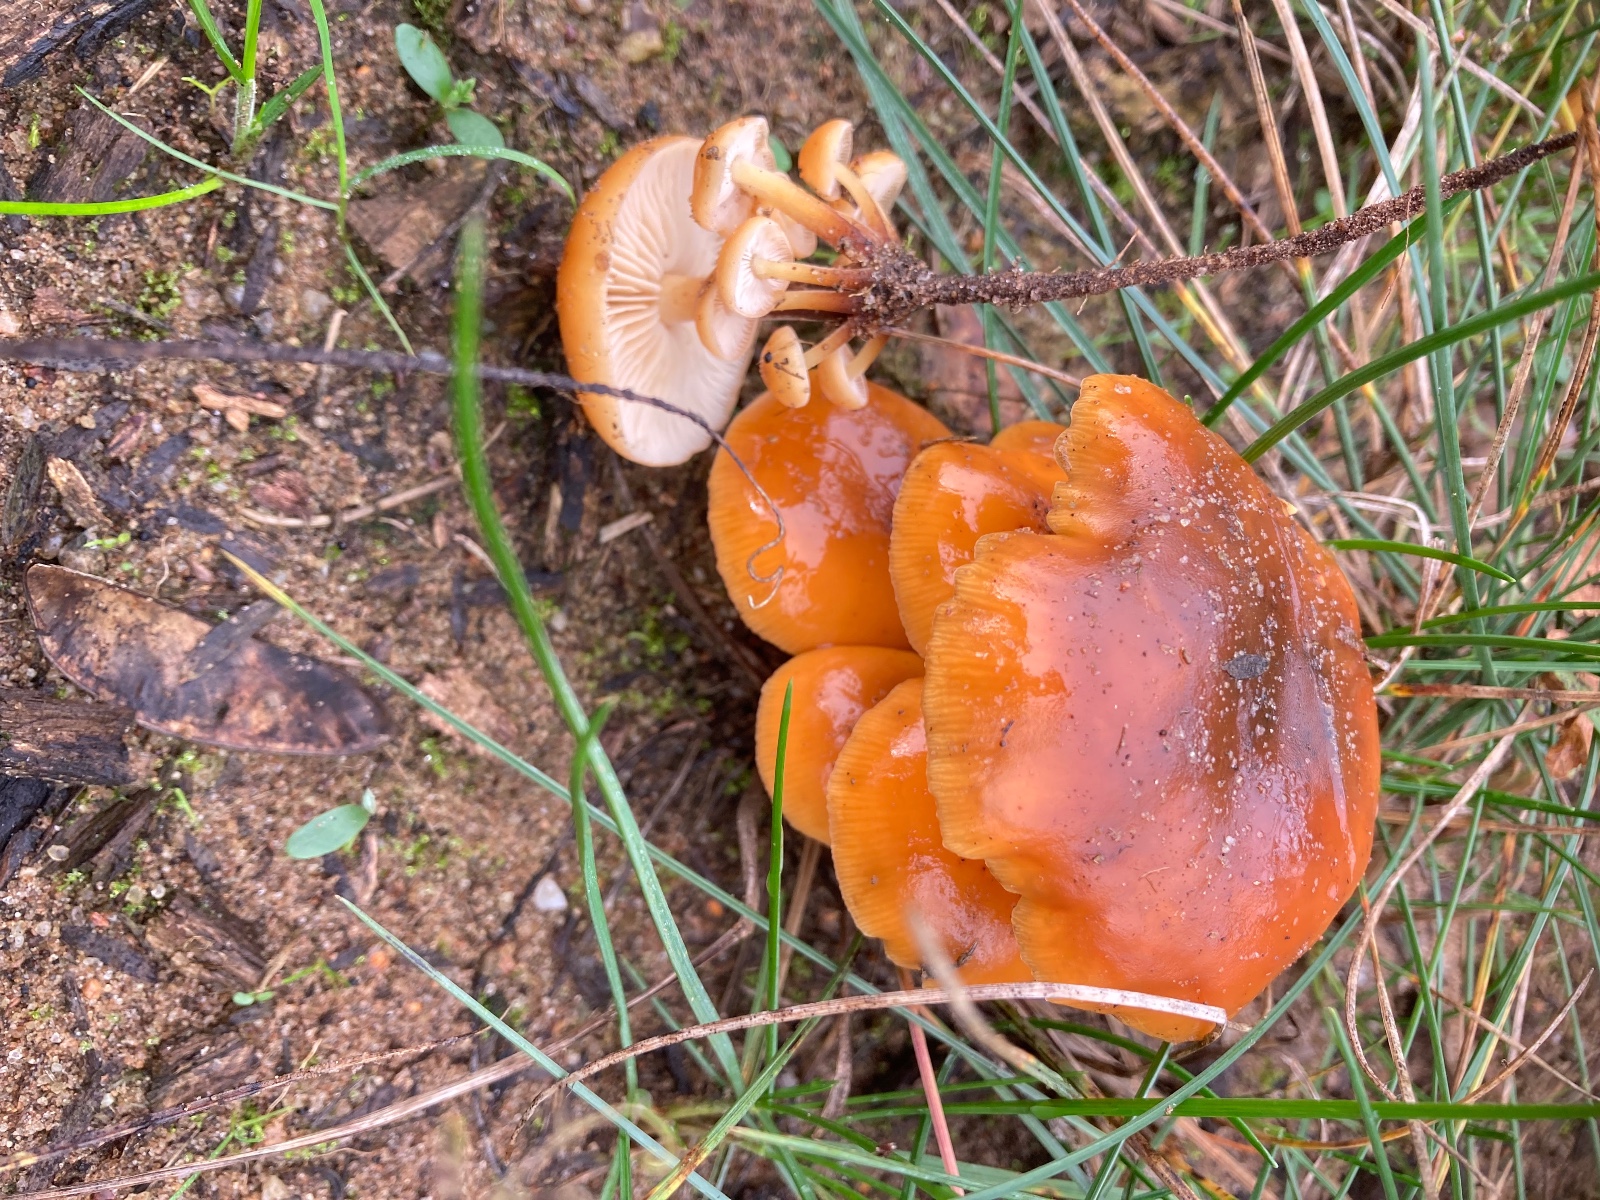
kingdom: Fungi
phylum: Basidiomycota
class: Agaricomycetes
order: Agaricales
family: Physalacriaceae
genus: Flammulina
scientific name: Flammulina velutipes
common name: gul fløjlsfod
